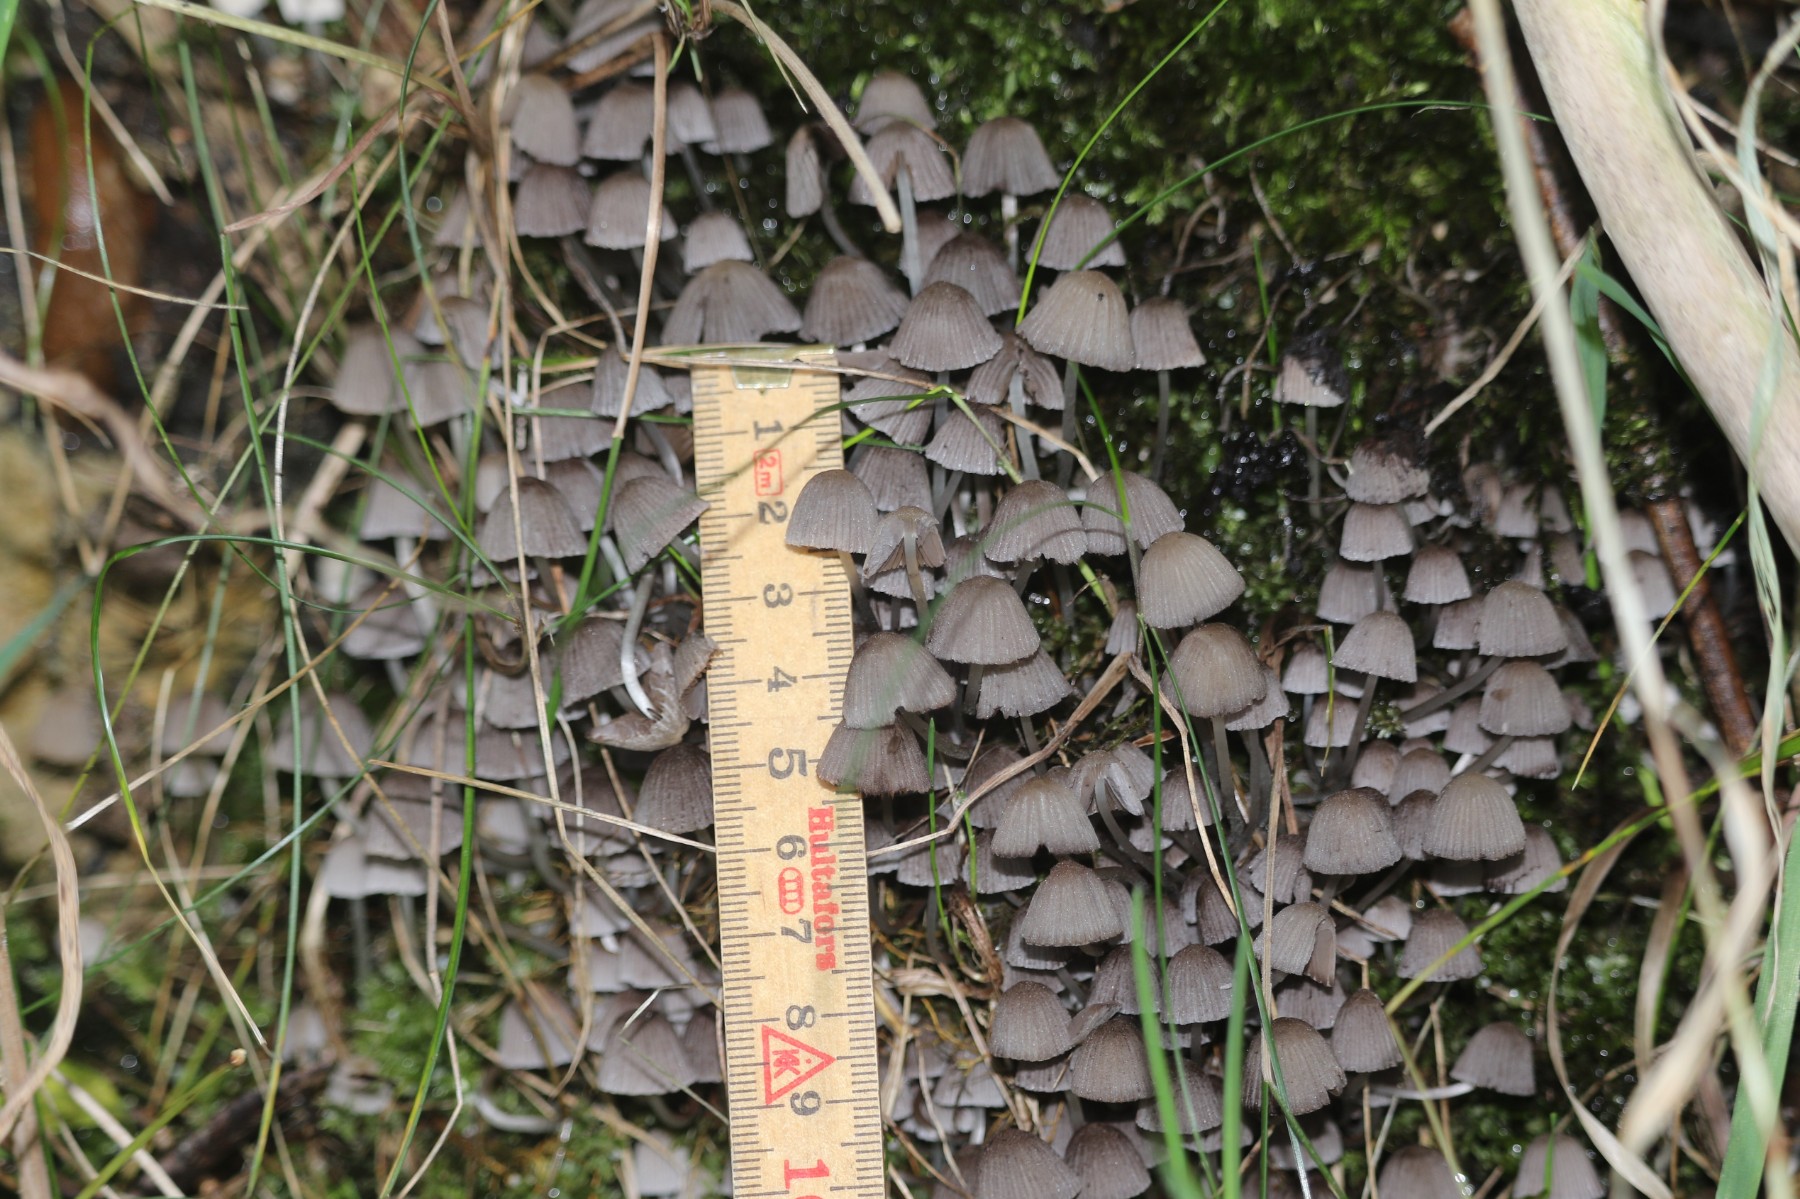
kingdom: Fungi
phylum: Basidiomycota
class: Agaricomycetes
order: Agaricales
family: Psathyrellaceae
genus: Coprinellus
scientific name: Coprinellus disseminatus
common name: bredsået blækhat
